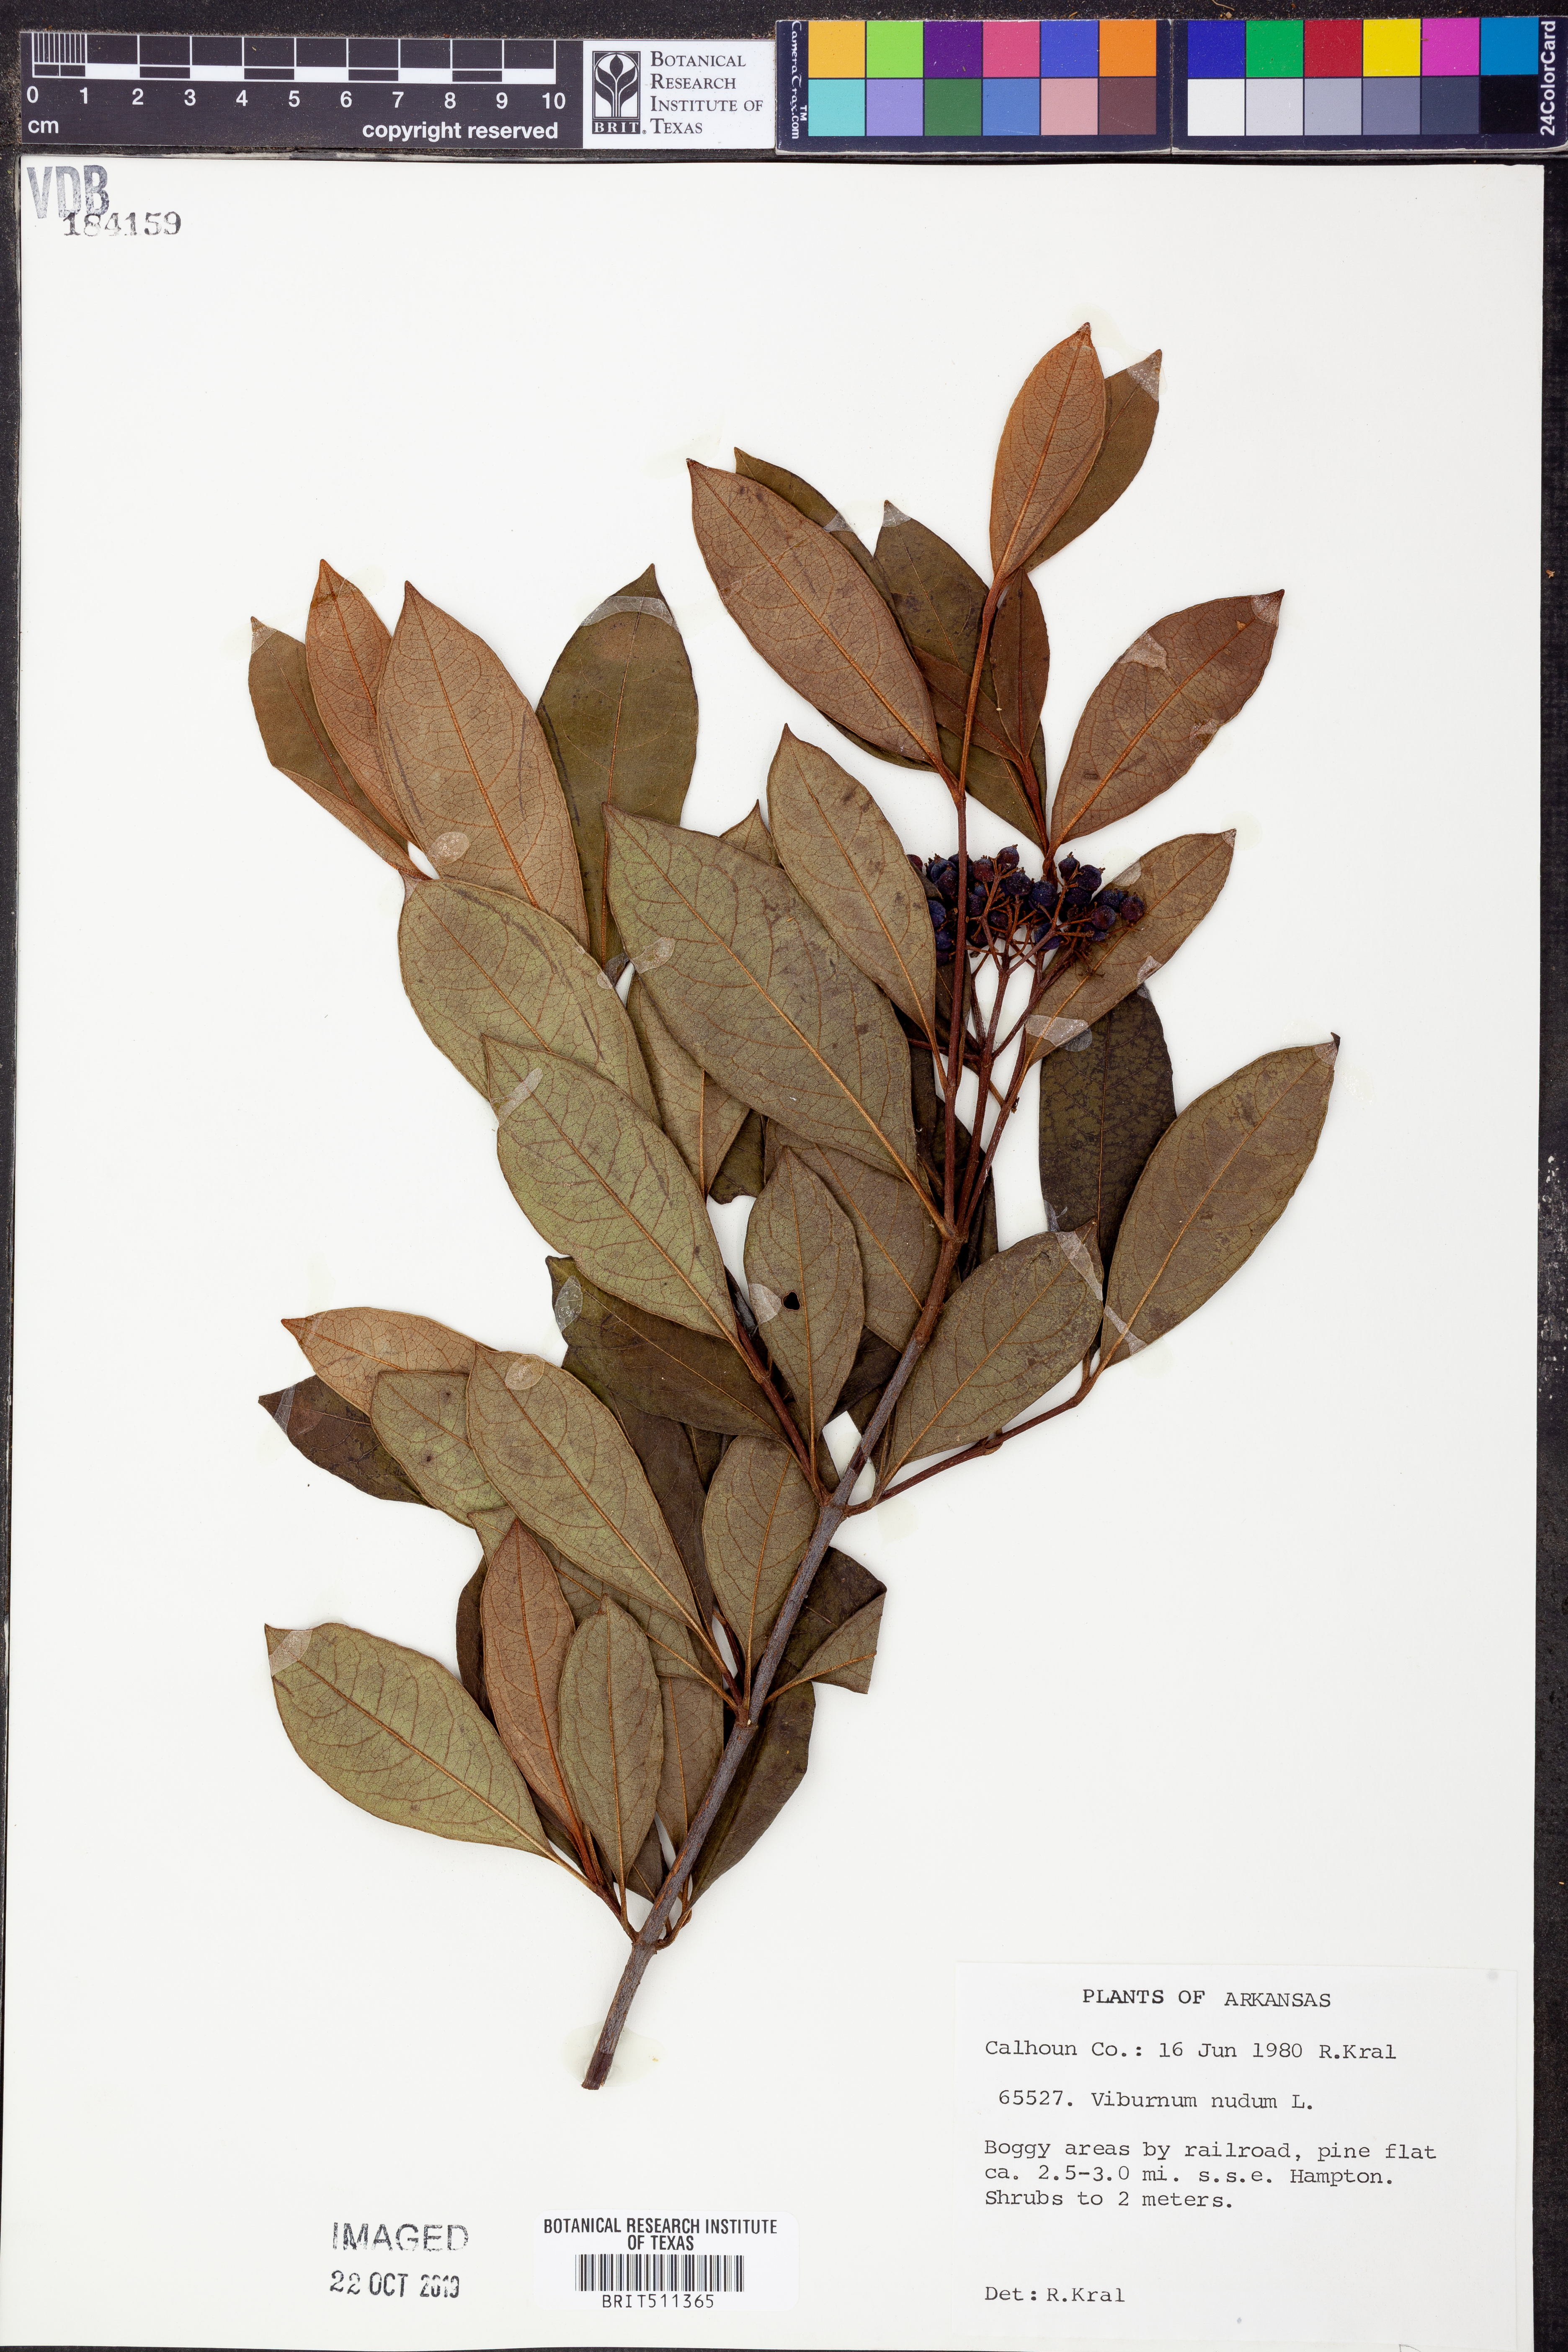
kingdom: Plantae
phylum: Tracheophyta
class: Magnoliopsida
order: Dipsacales
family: Viburnaceae
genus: Viburnum
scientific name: Viburnum nudum
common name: Possum haw
